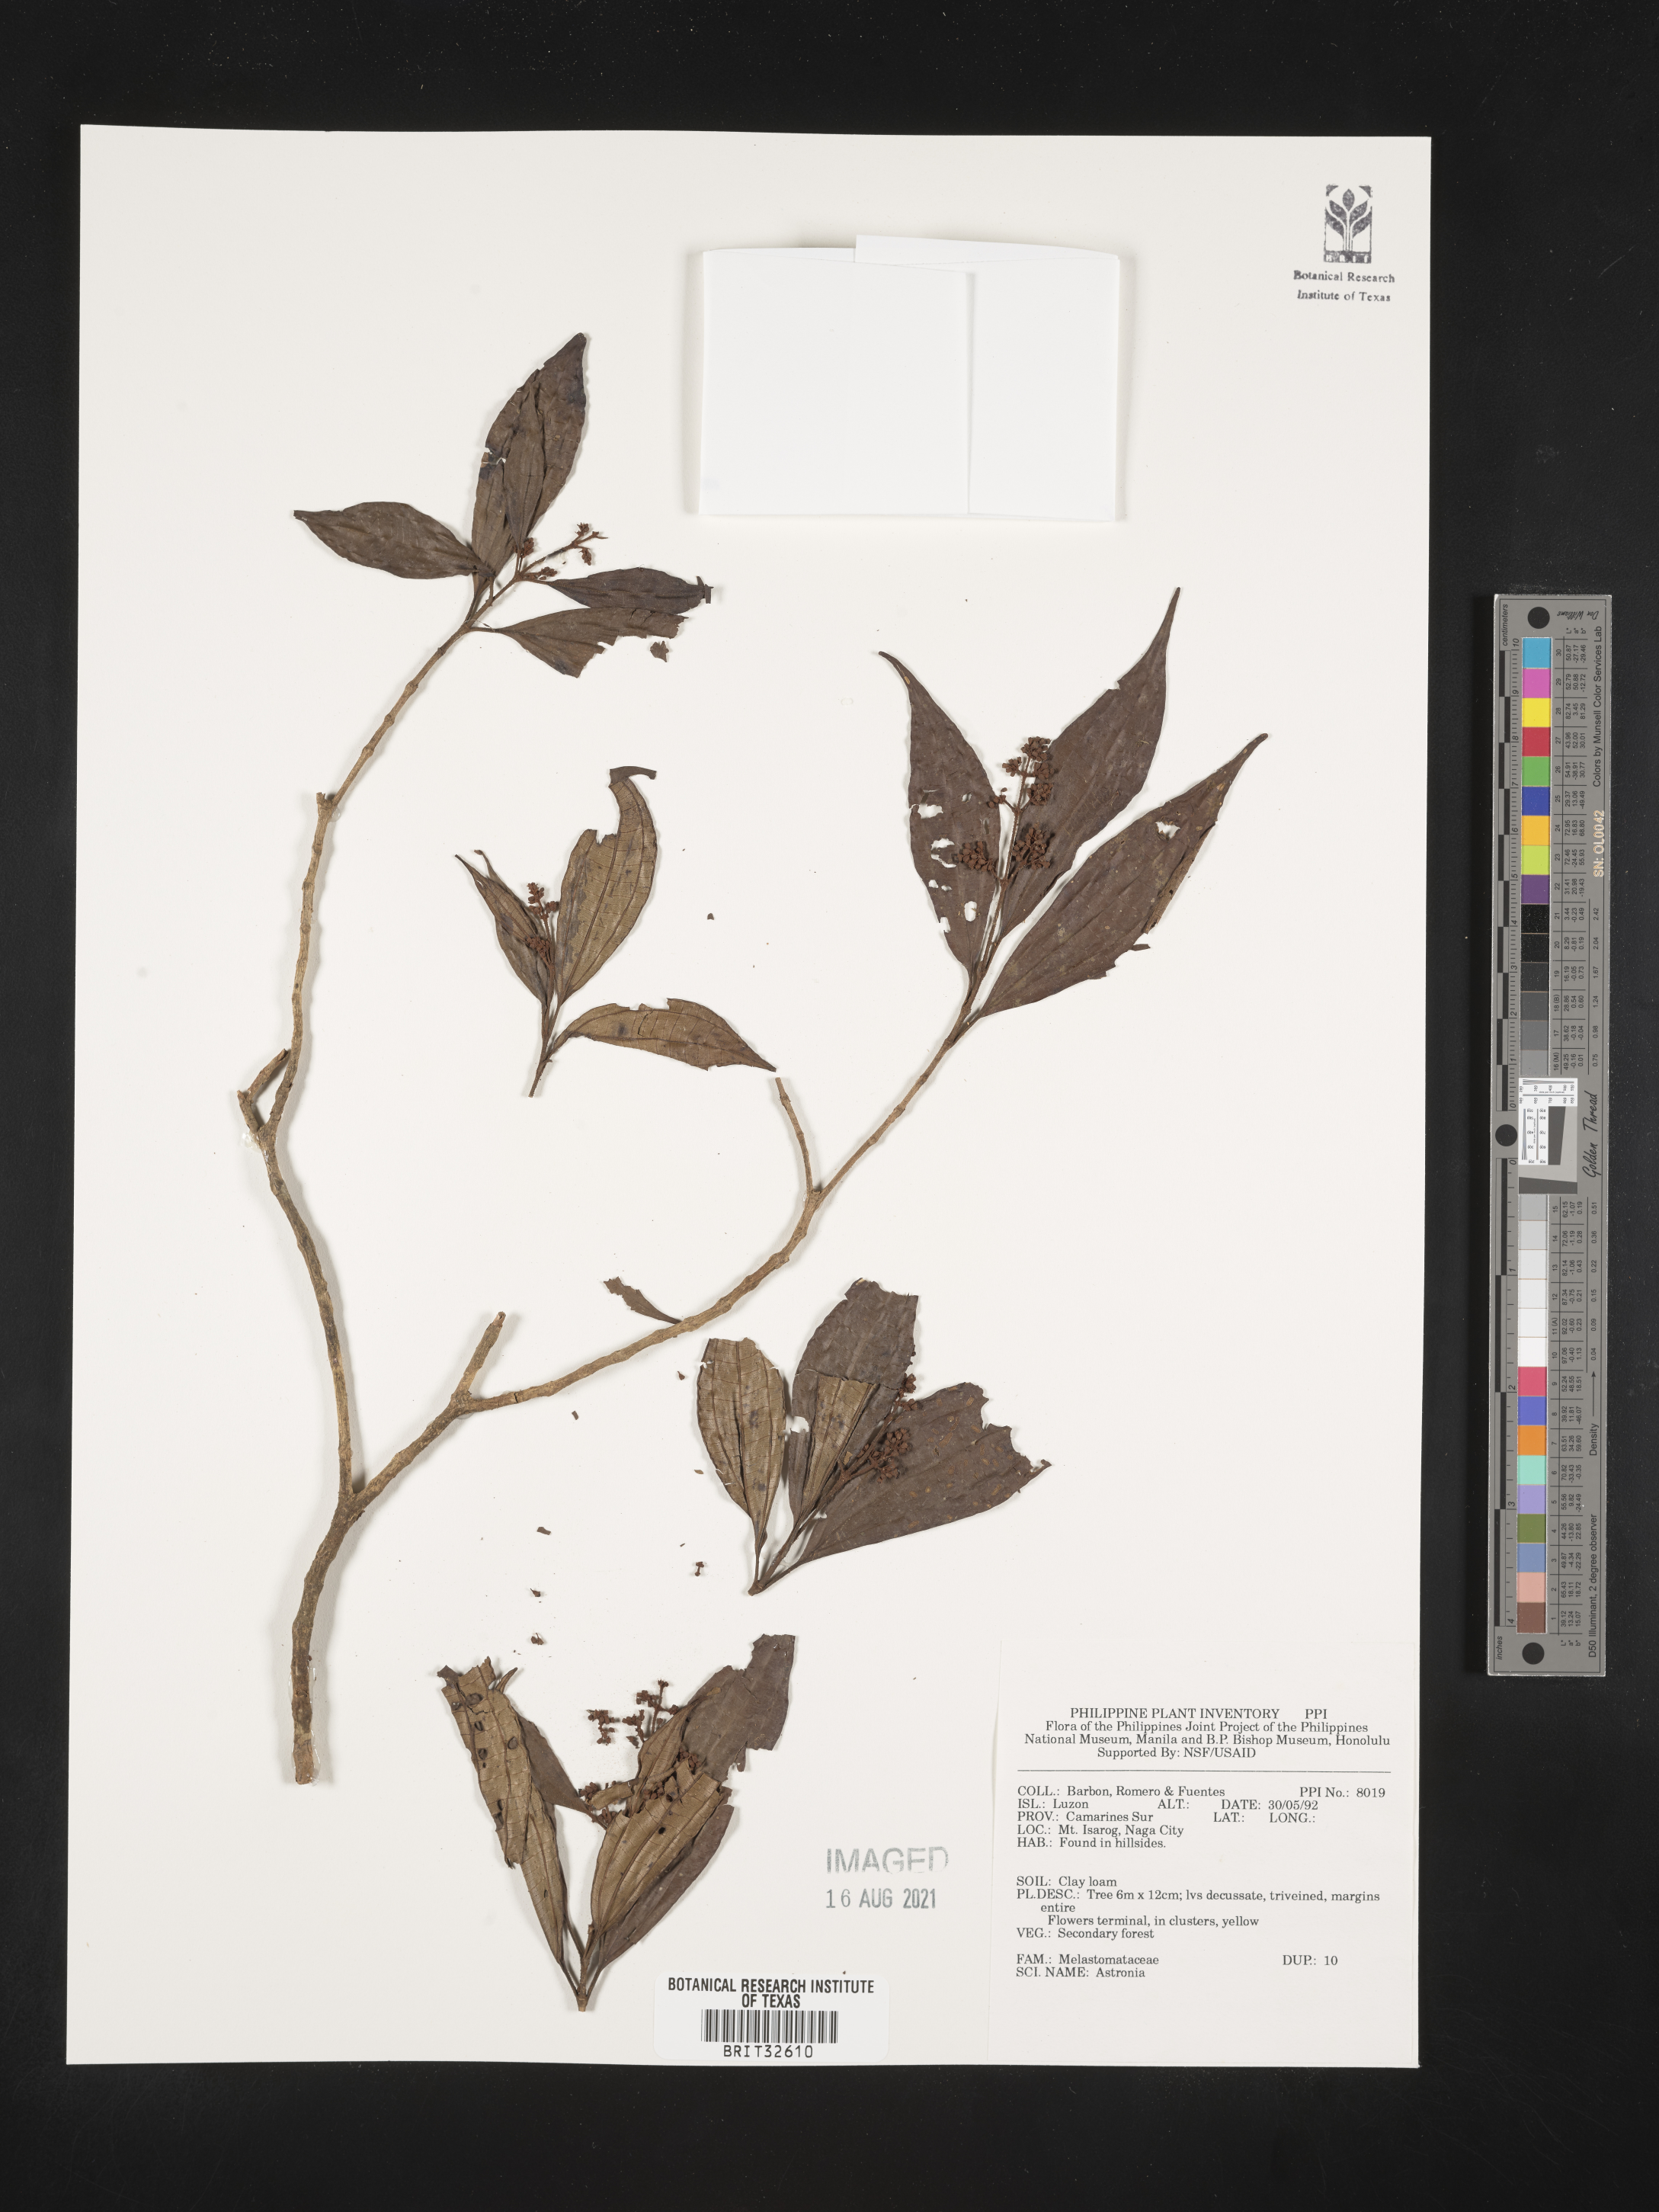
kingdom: Plantae
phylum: Tracheophyta
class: Magnoliopsida
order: Myrtales
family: Melastomataceae
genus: Astronia
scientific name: Astronia
